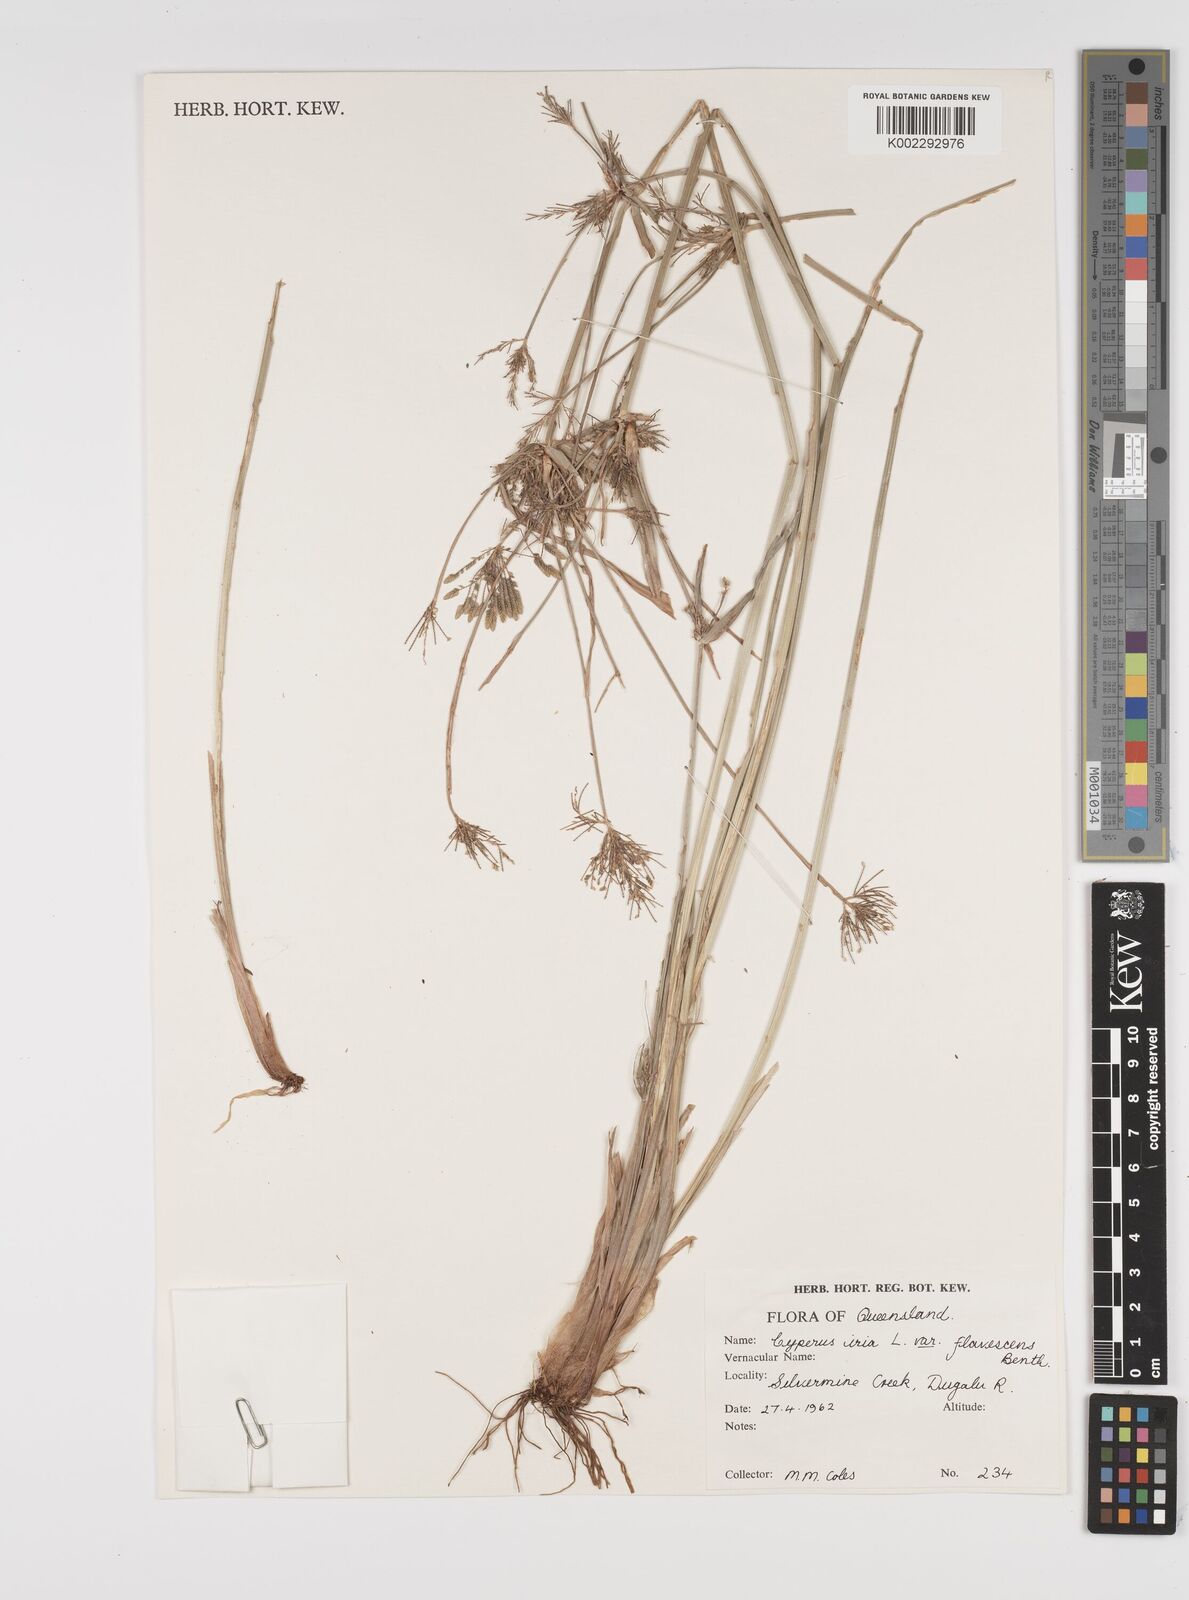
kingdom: Plantae
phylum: Tracheophyta
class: Liliopsida
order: Poales
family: Cyperaceae
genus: Cyperus
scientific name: Cyperus iria
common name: Ricefield flatsedge
